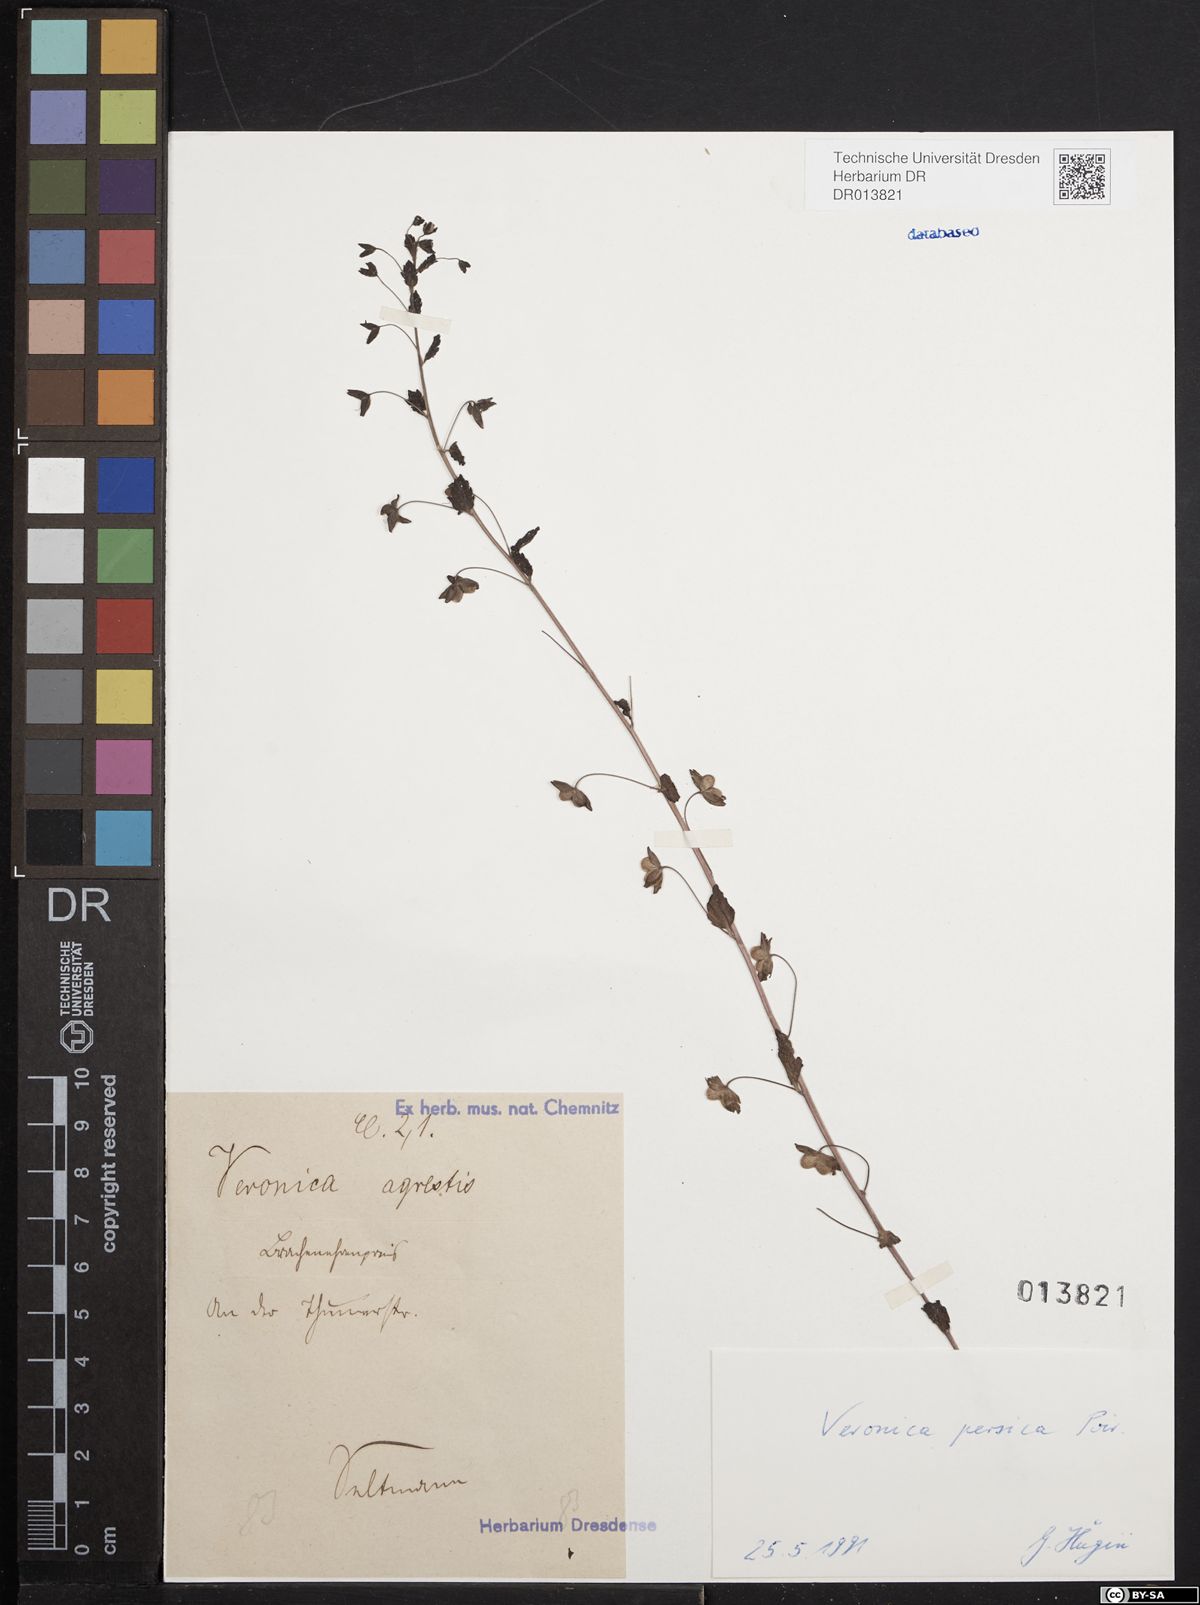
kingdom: Plantae
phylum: Tracheophyta
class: Magnoliopsida
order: Lamiales
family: Plantaginaceae
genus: Veronica
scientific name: Veronica persica
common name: Common field-speedwell
